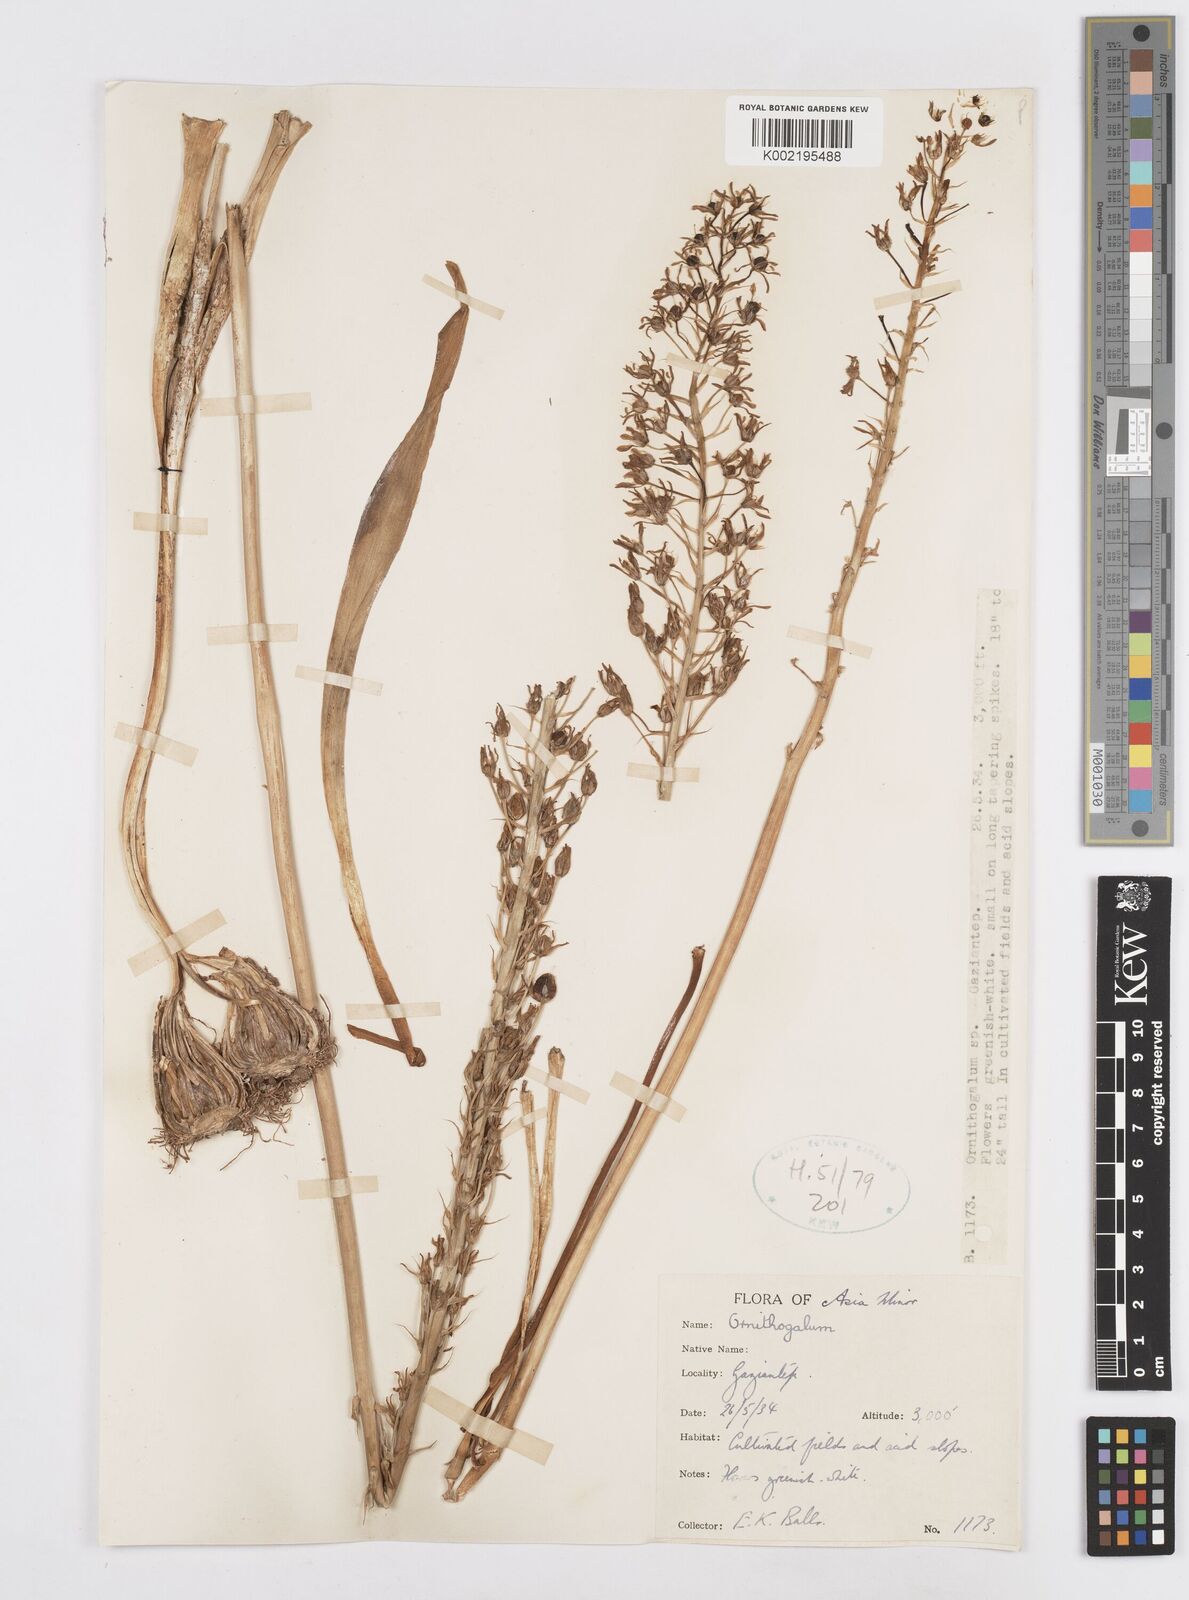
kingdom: Plantae
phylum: Tracheophyta
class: Liliopsida
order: Asparagales
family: Asparagaceae
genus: Ornithogalum
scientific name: Ornithogalum
